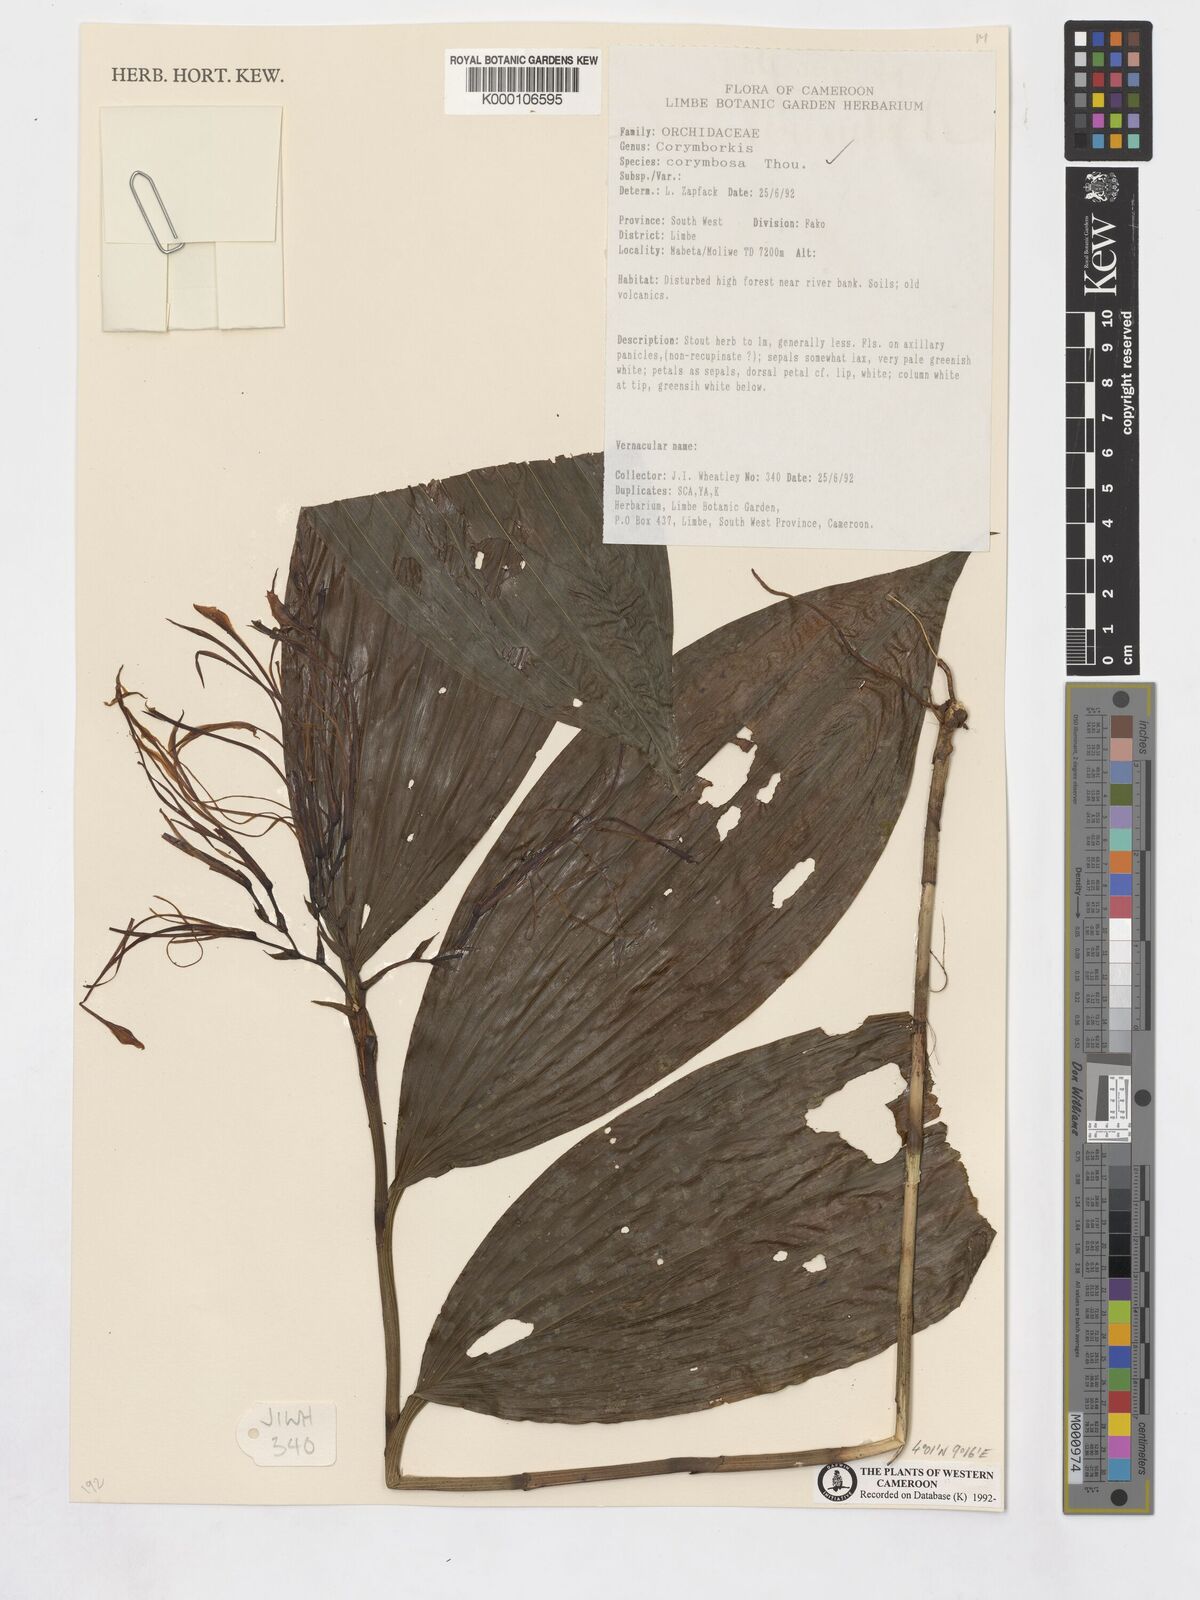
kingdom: Plantae
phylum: Tracheophyta
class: Liliopsida
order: Asparagales
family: Orchidaceae
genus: Corymborkis
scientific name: Corymborkis corymbis
